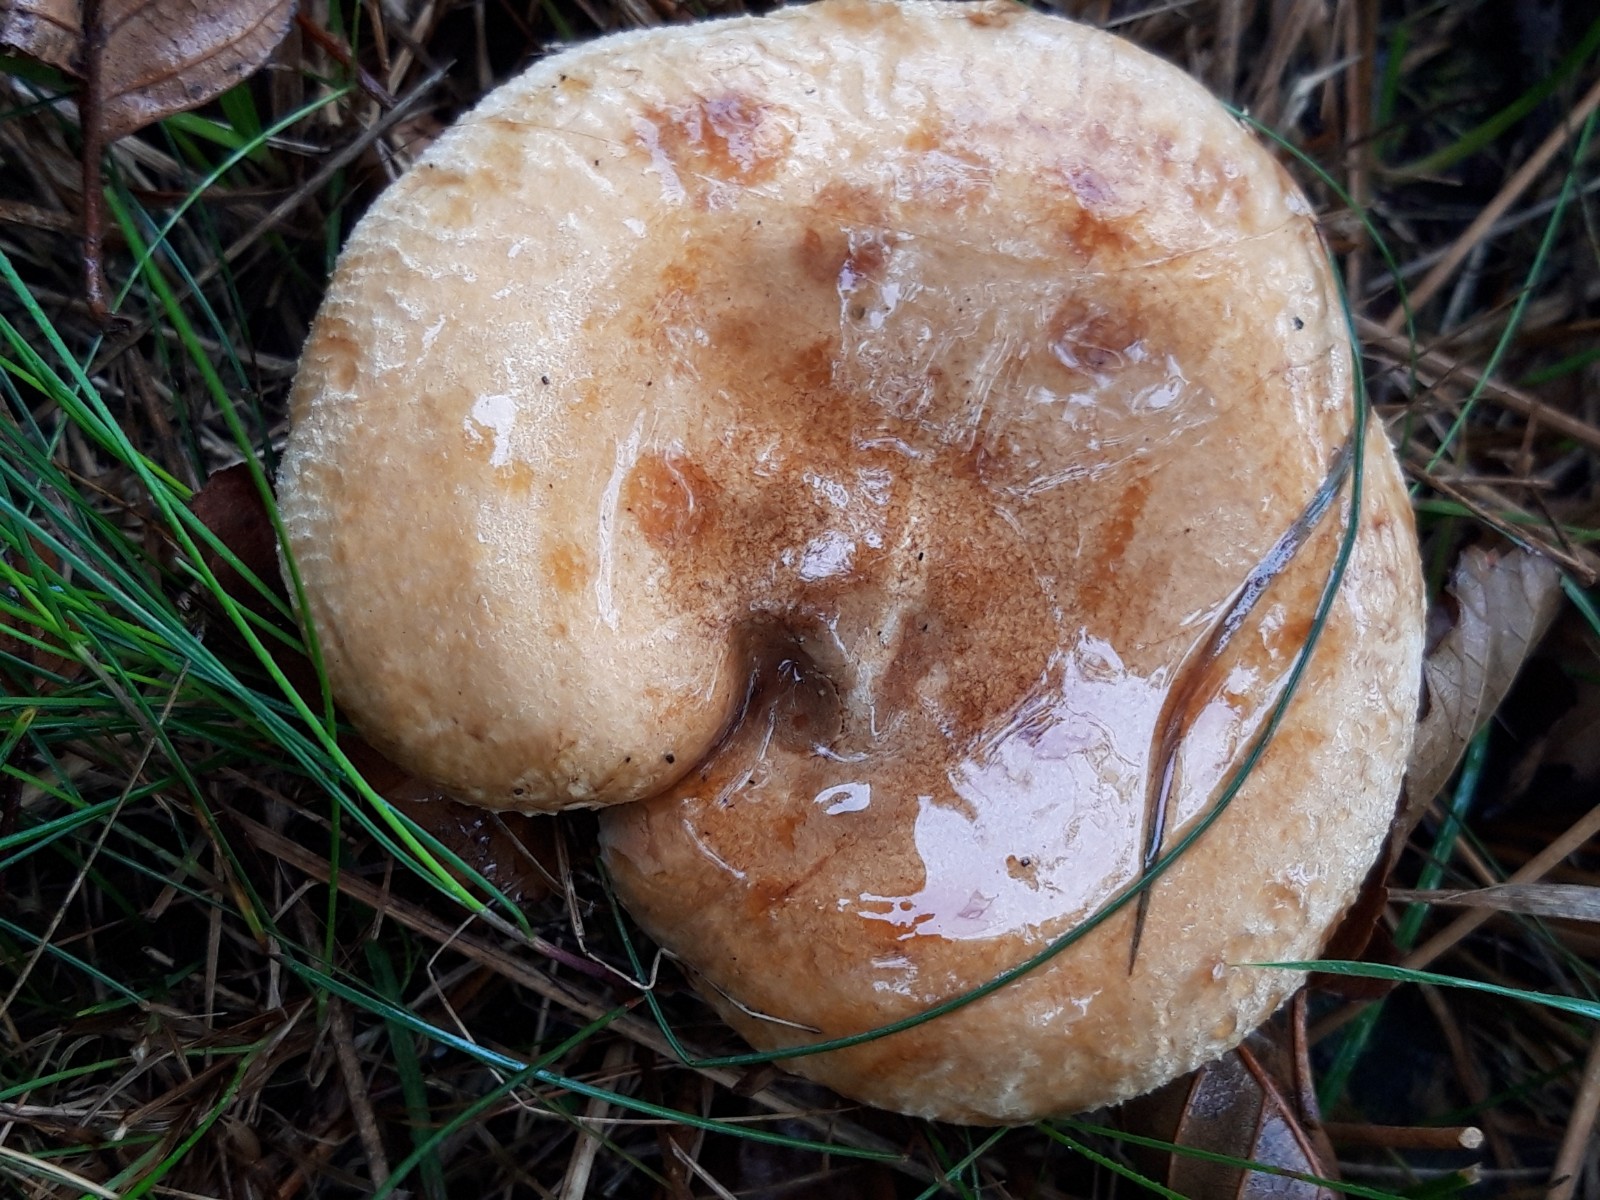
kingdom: Fungi
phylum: Basidiomycota
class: Agaricomycetes
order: Boletales
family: Paxillaceae
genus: Paxillus
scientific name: Paxillus
